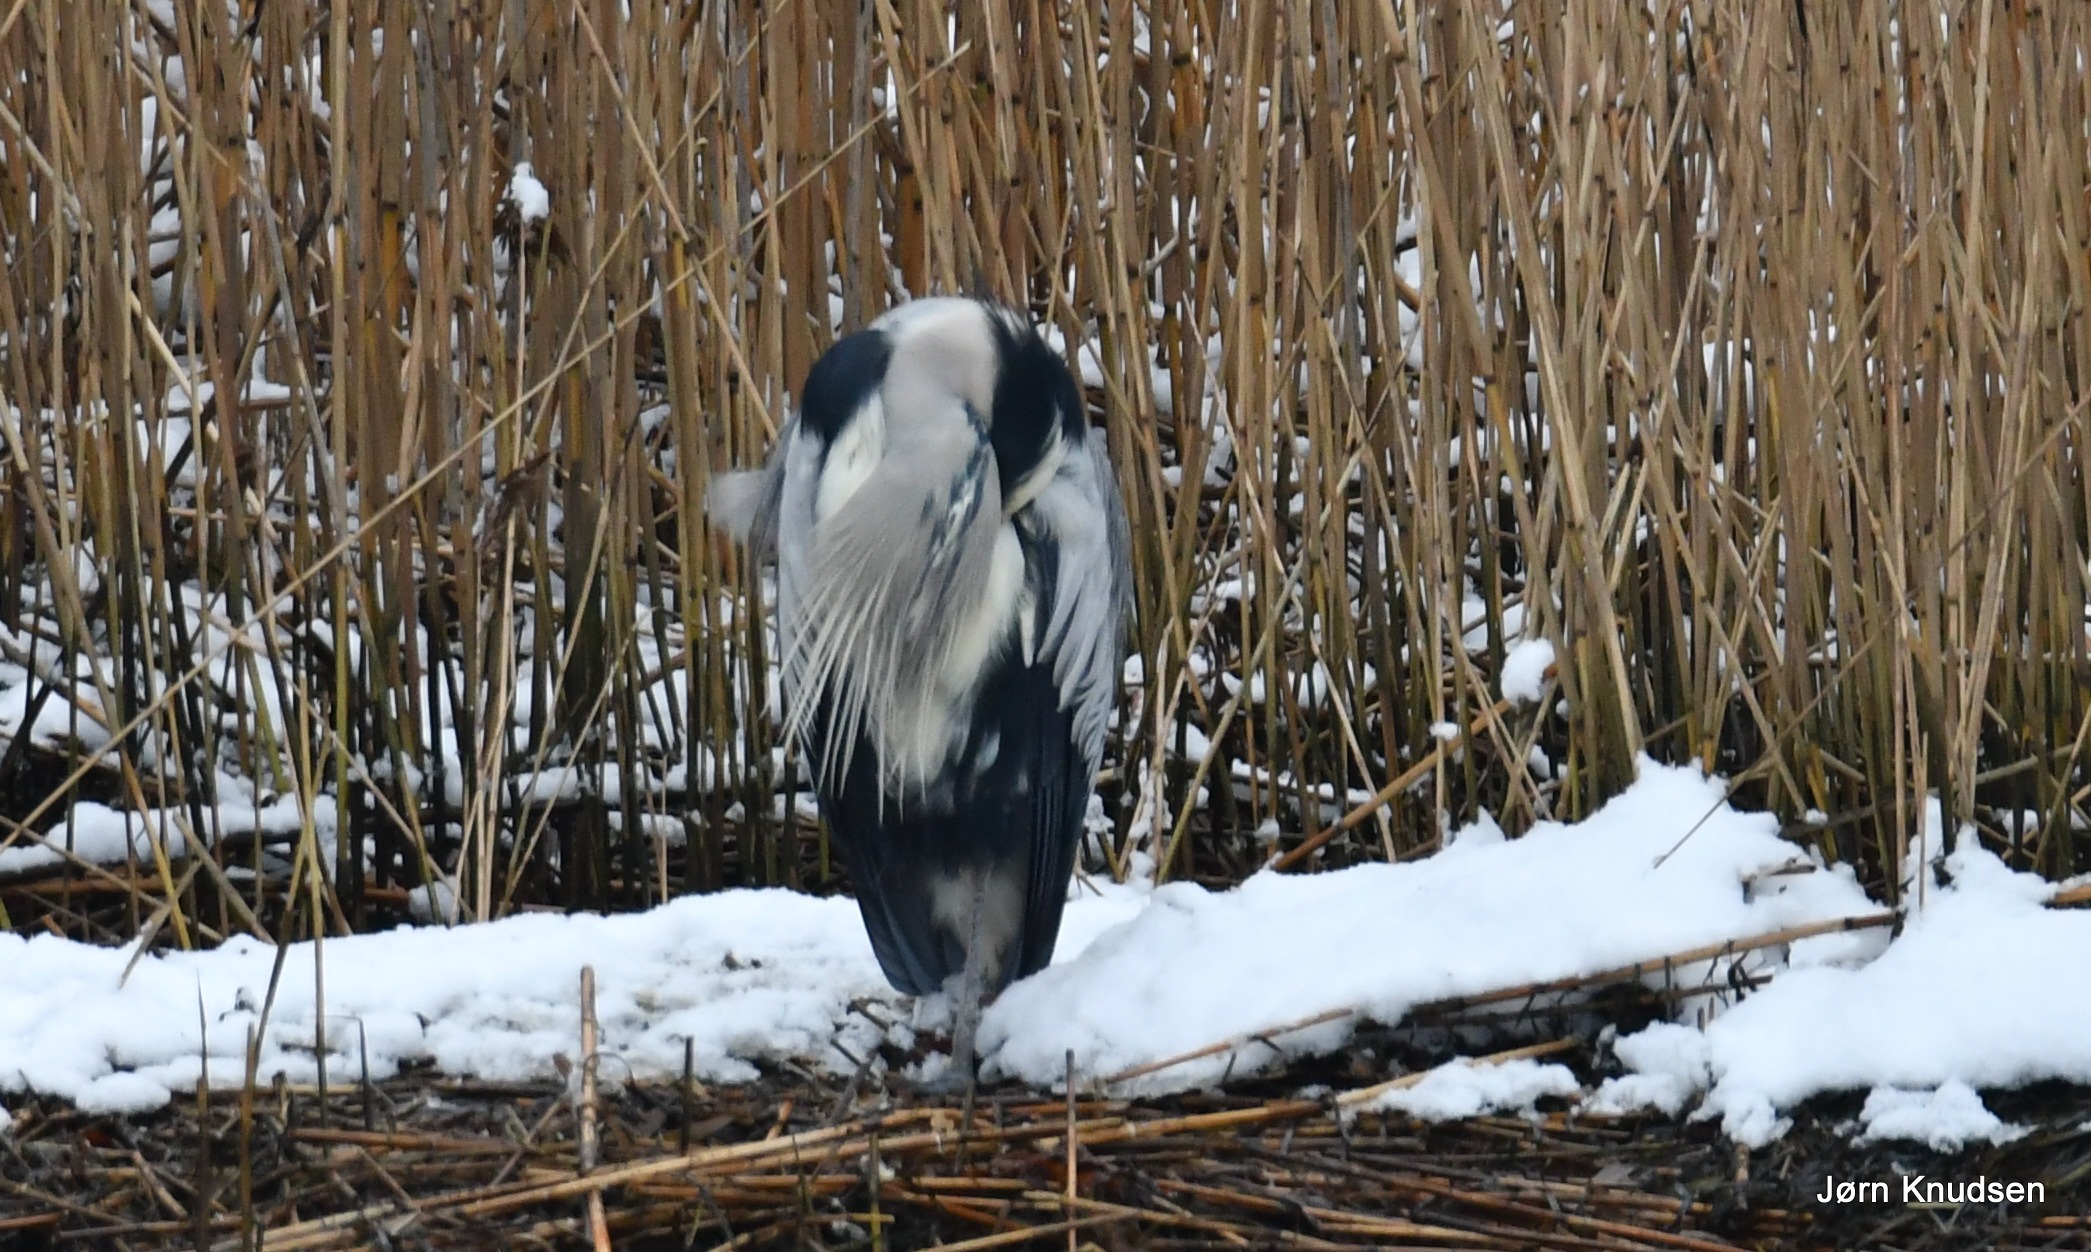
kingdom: Animalia
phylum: Chordata
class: Aves
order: Pelecaniformes
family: Ardeidae
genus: Ardea
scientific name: Ardea cinerea
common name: Fiskehejre
